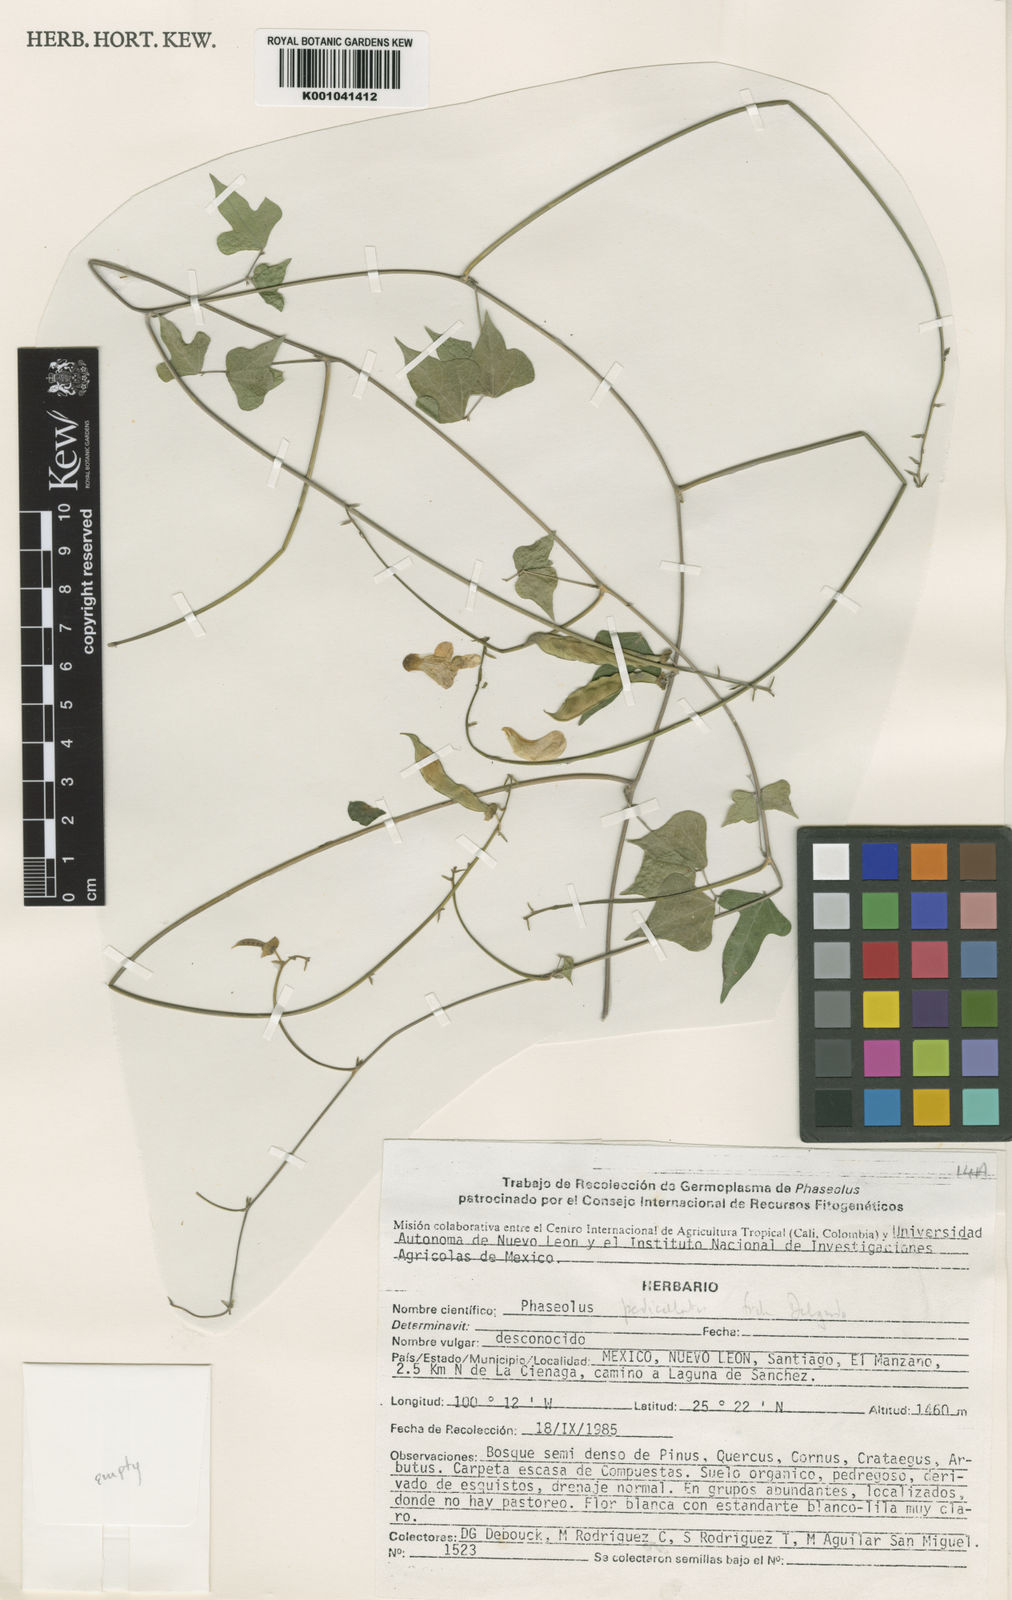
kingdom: Plantae
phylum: Tracheophyta
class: Magnoliopsida
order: Fabales
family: Fabaceae
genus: Phaseolus
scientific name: Phaseolus pedicellatus
